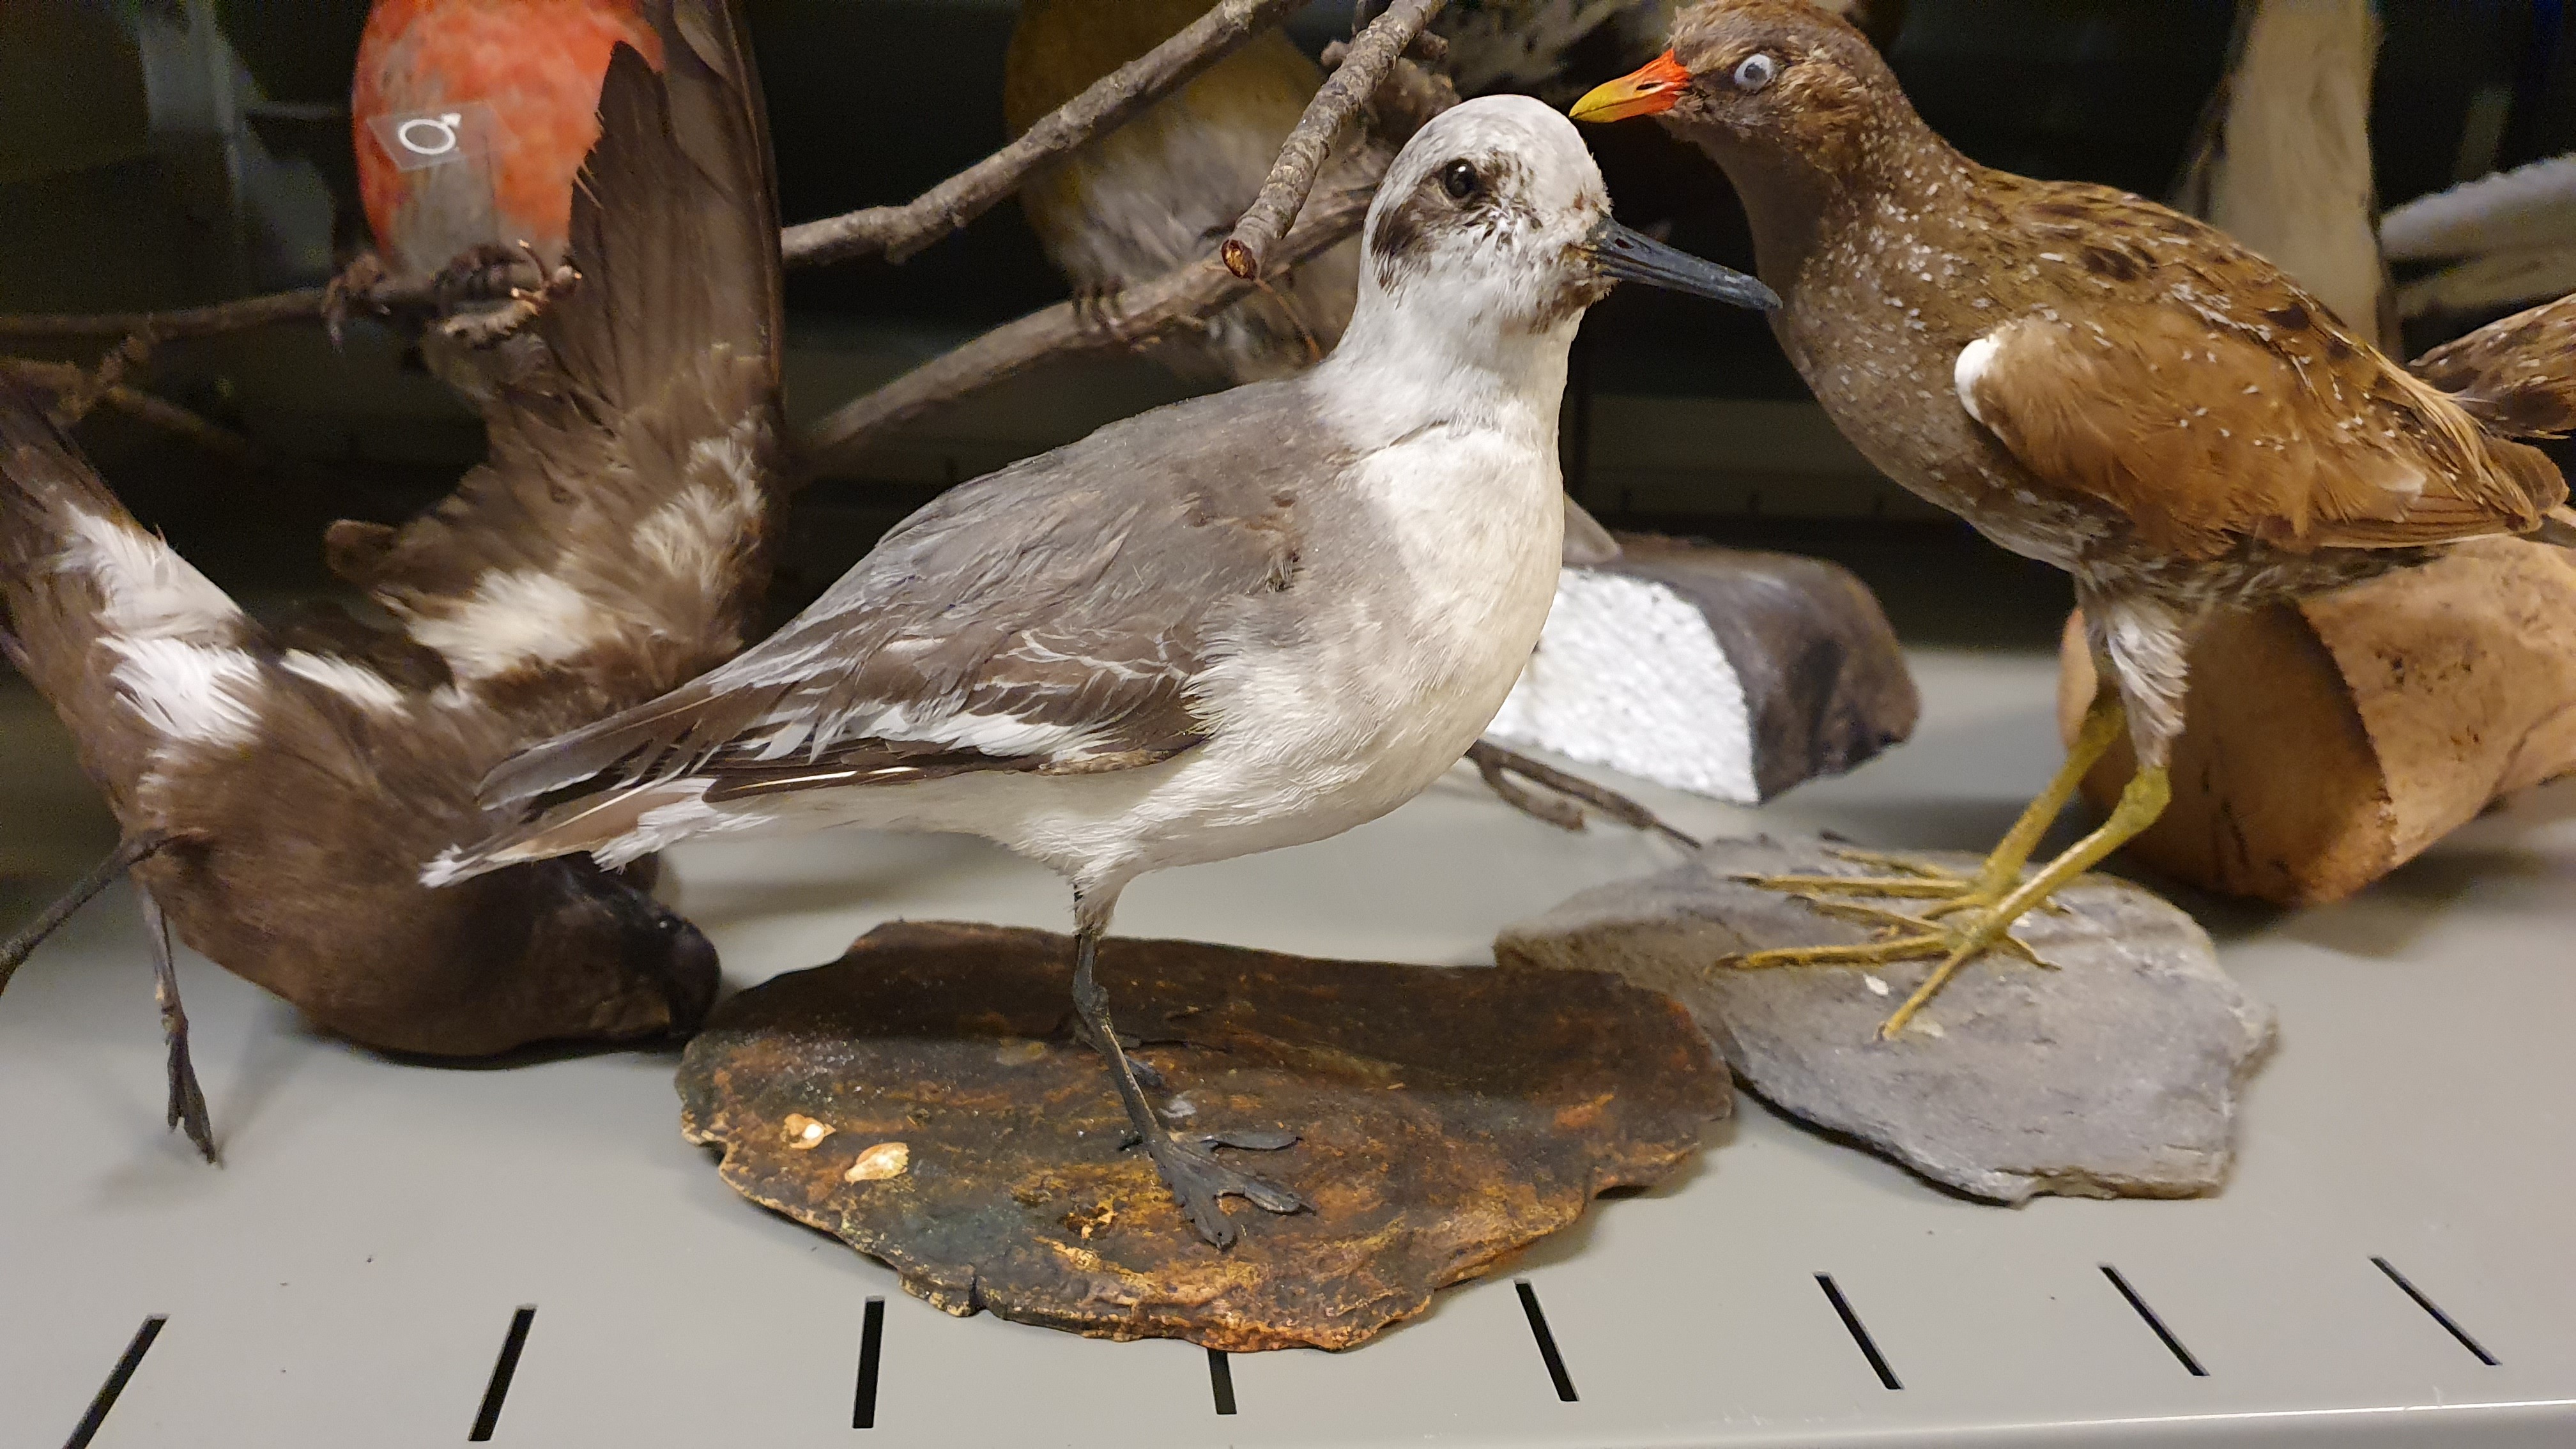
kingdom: Animalia
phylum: Chordata
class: Aves
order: Charadriiformes
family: Scolopacidae
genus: Phalaropus
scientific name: Phalaropus fulicarius
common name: Red phalarope
